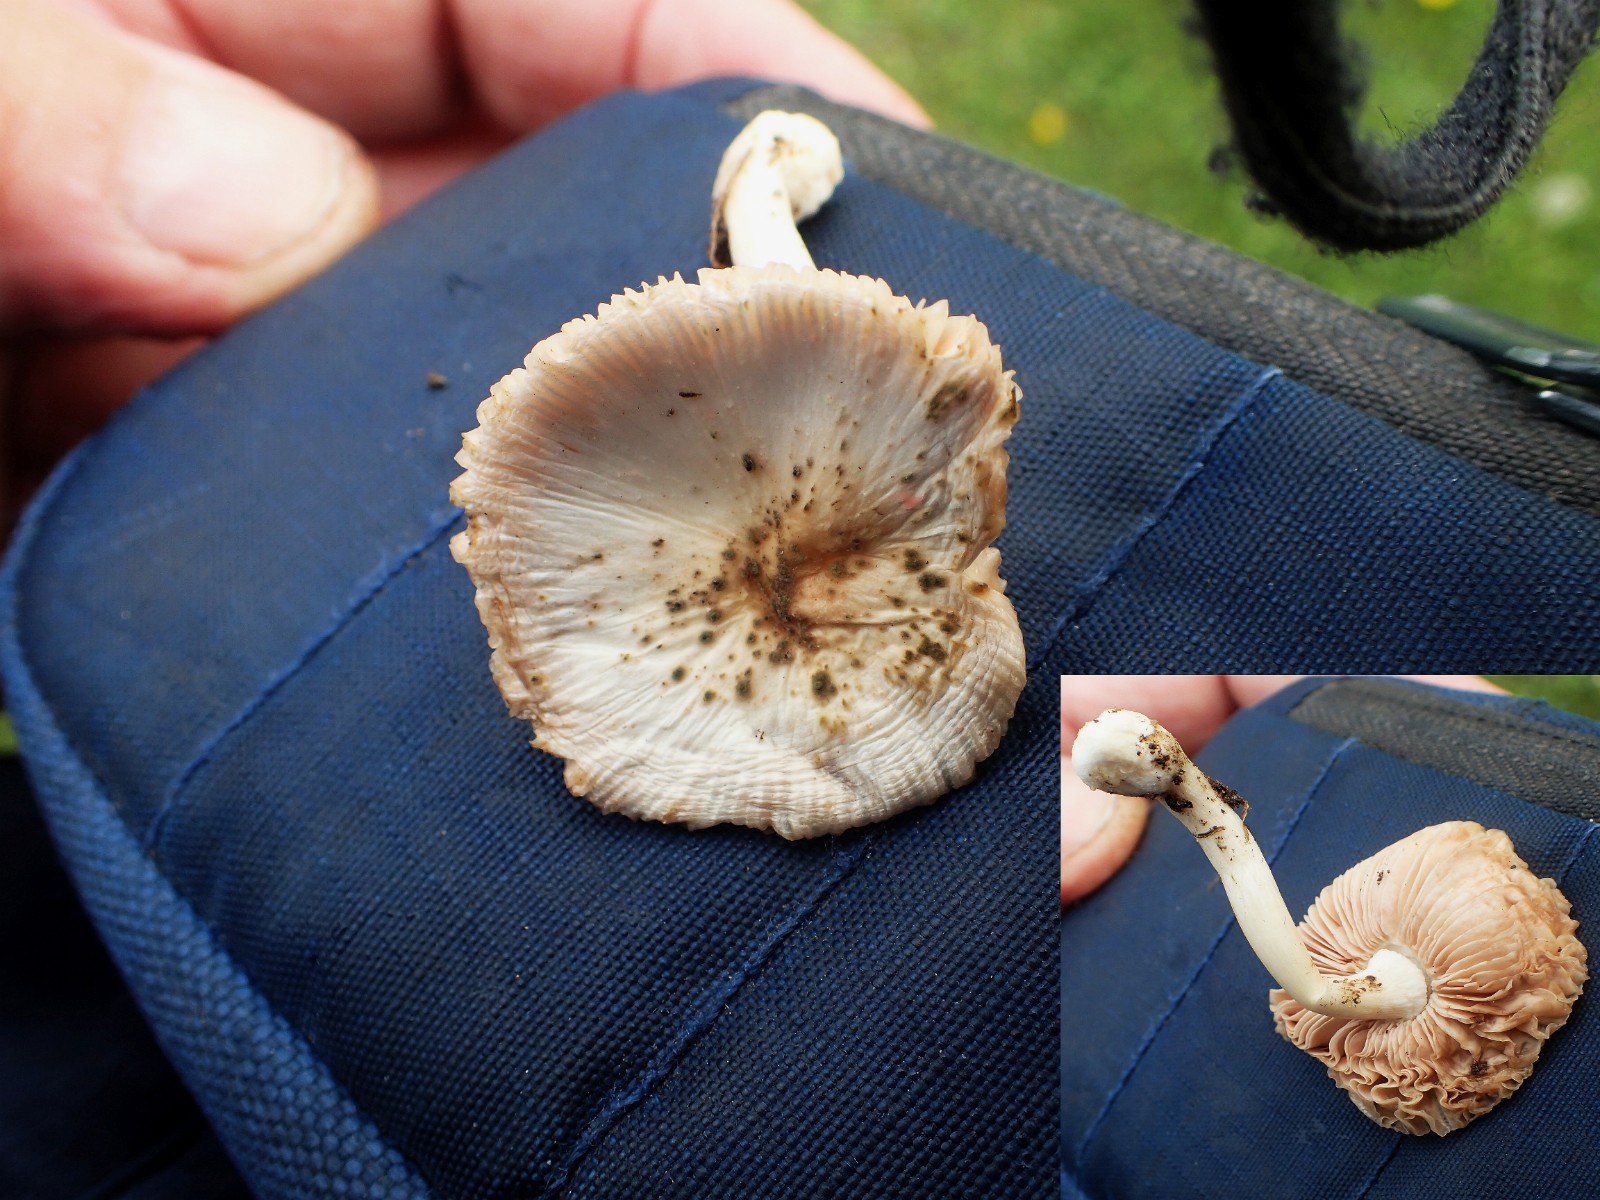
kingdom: Fungi
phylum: Basidiomycota
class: Agaricomycetes
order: Agaricales
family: Pluteaceae
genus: Volvariella
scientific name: Volvariella
